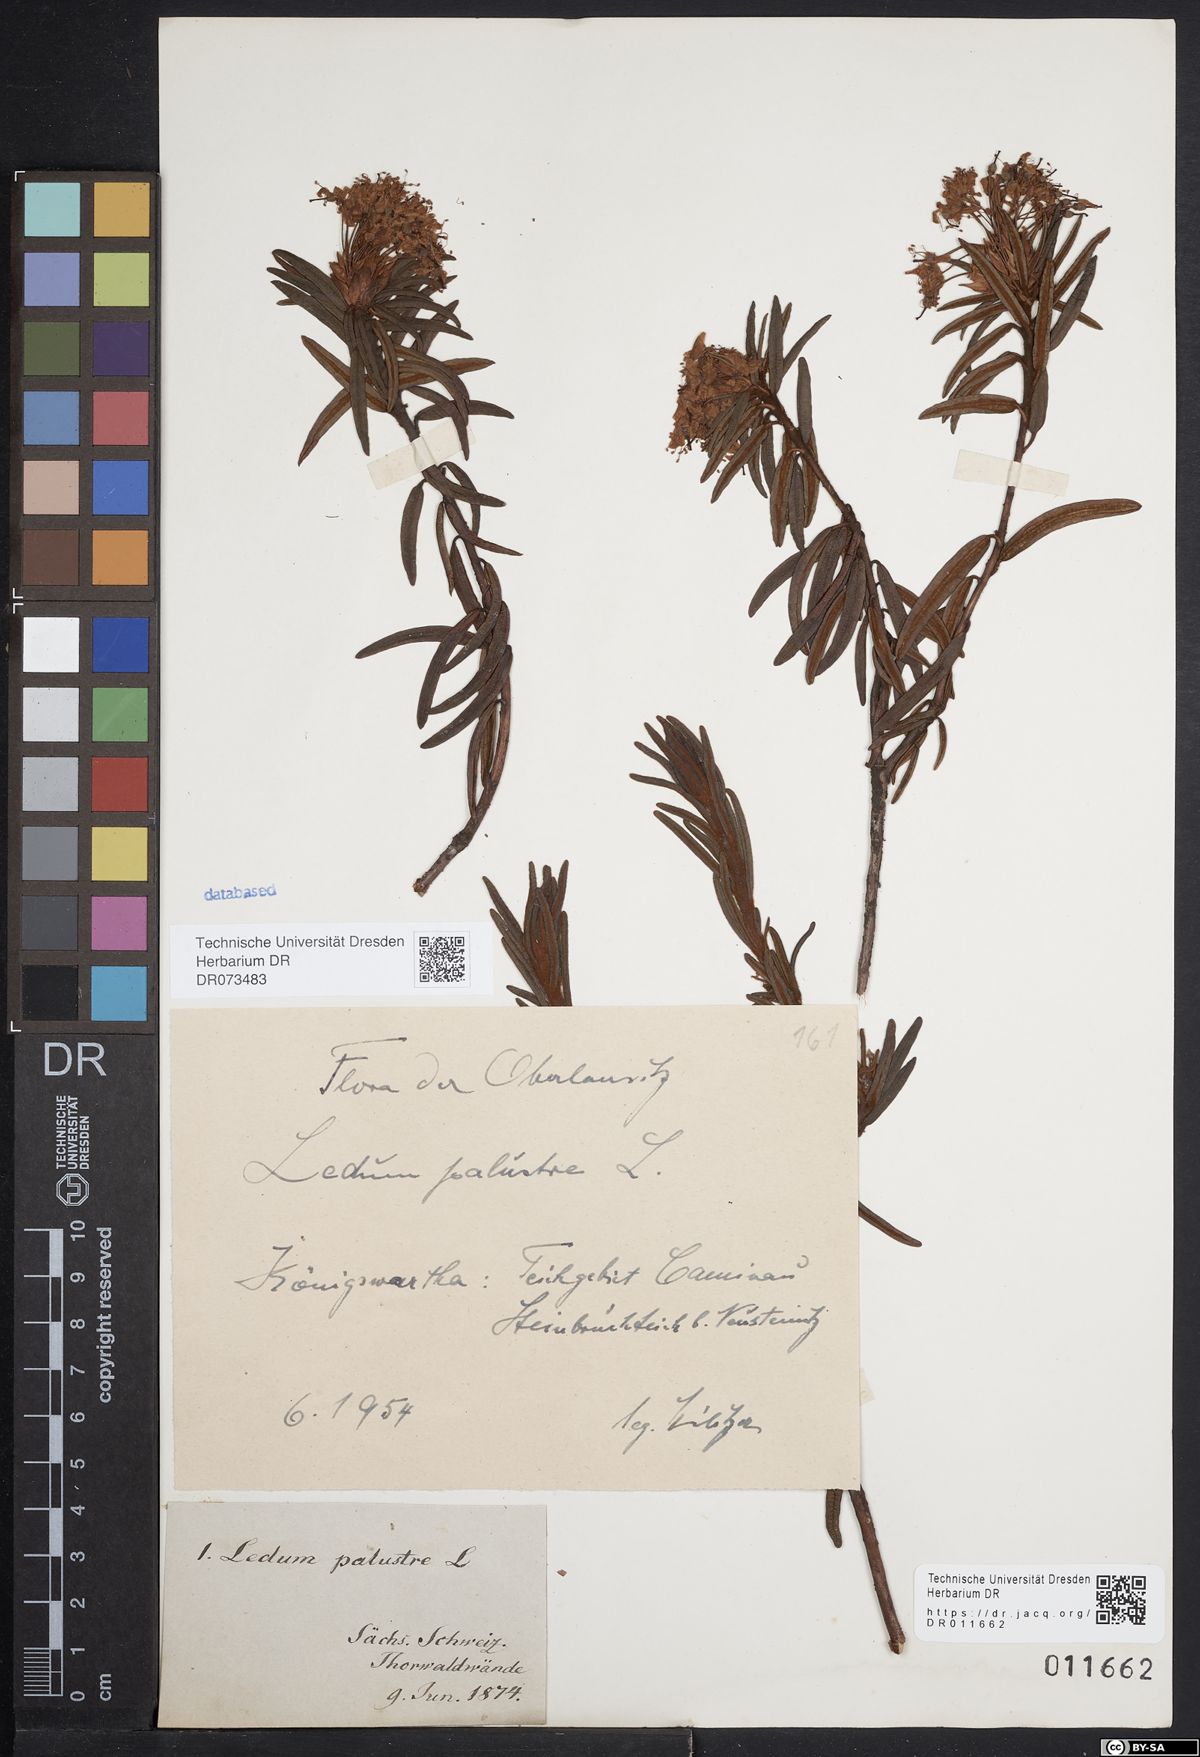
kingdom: Plantae
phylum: Tracheophyta
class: Magnoliopsida
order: Ericales
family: Ericaceae
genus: Rhododendron
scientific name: Rhododendron tomentosum
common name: Marsh labrador tea
